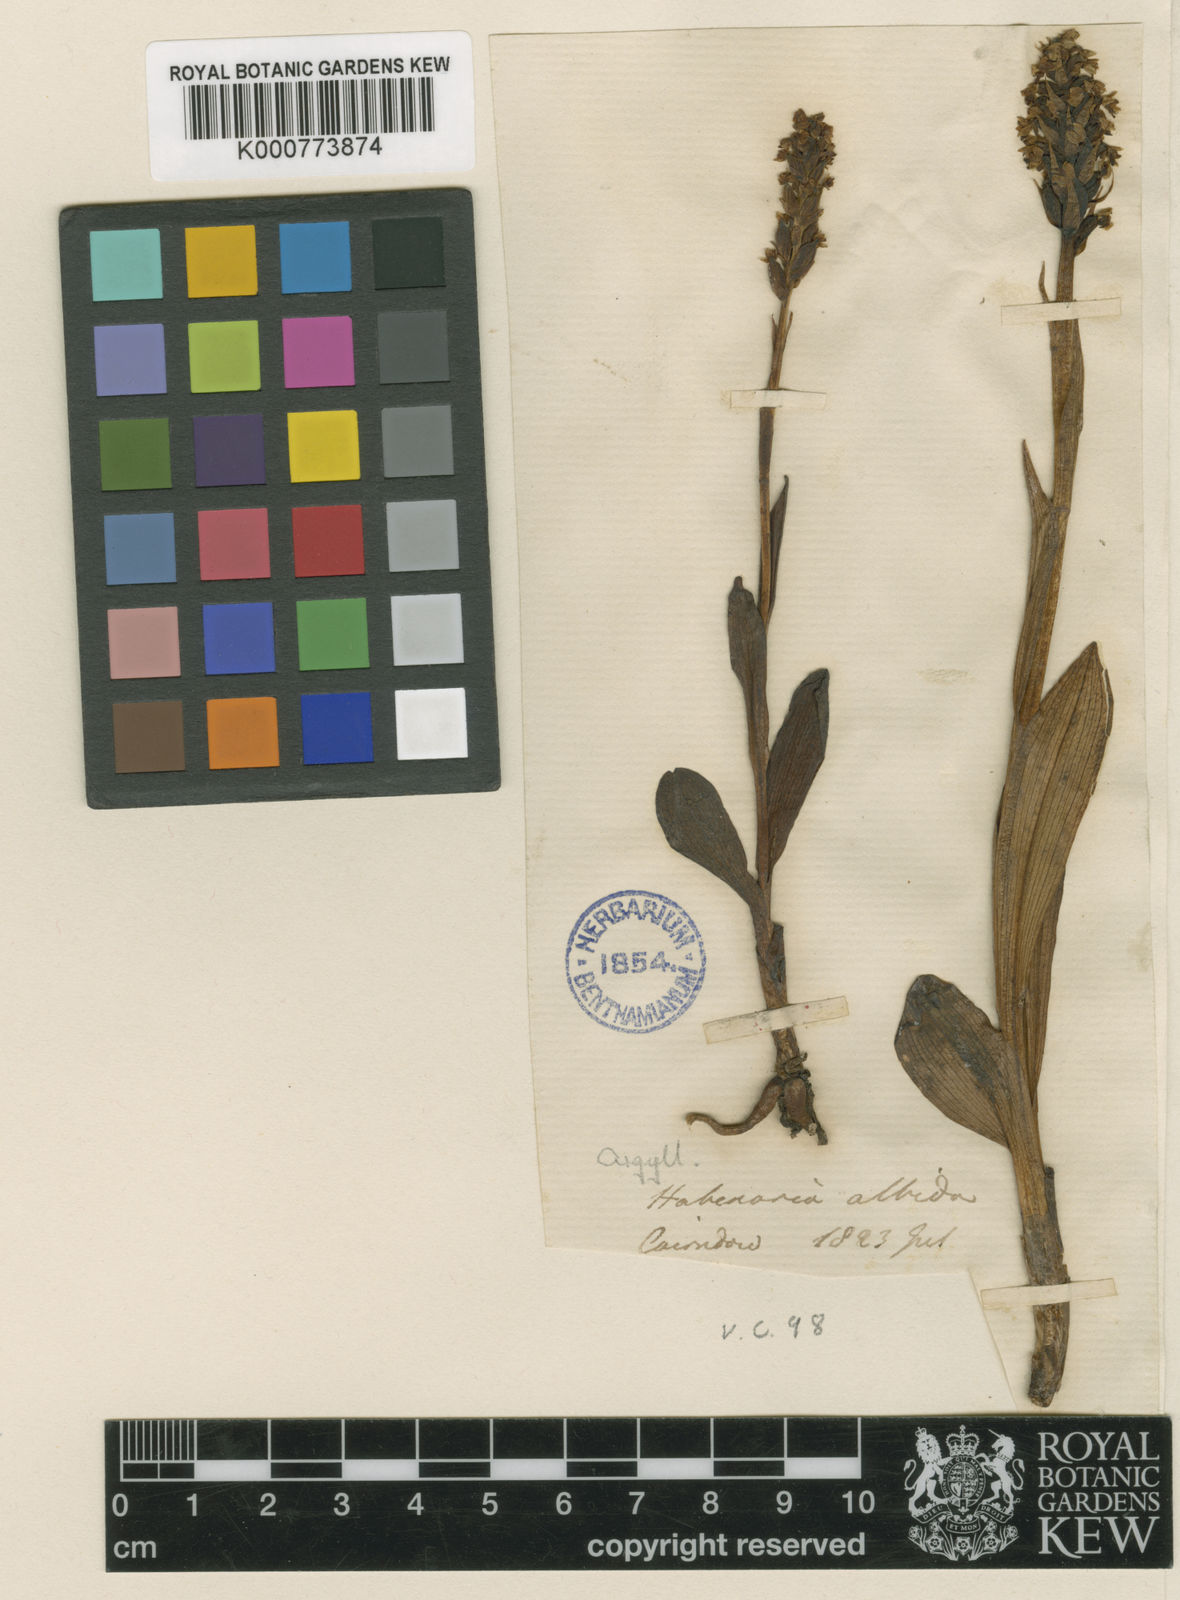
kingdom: Plantae
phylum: Tracheophyta
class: Liliopsida
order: Asparagales
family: Orchidaceae
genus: Pseudorchis
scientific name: Pseudorchis
